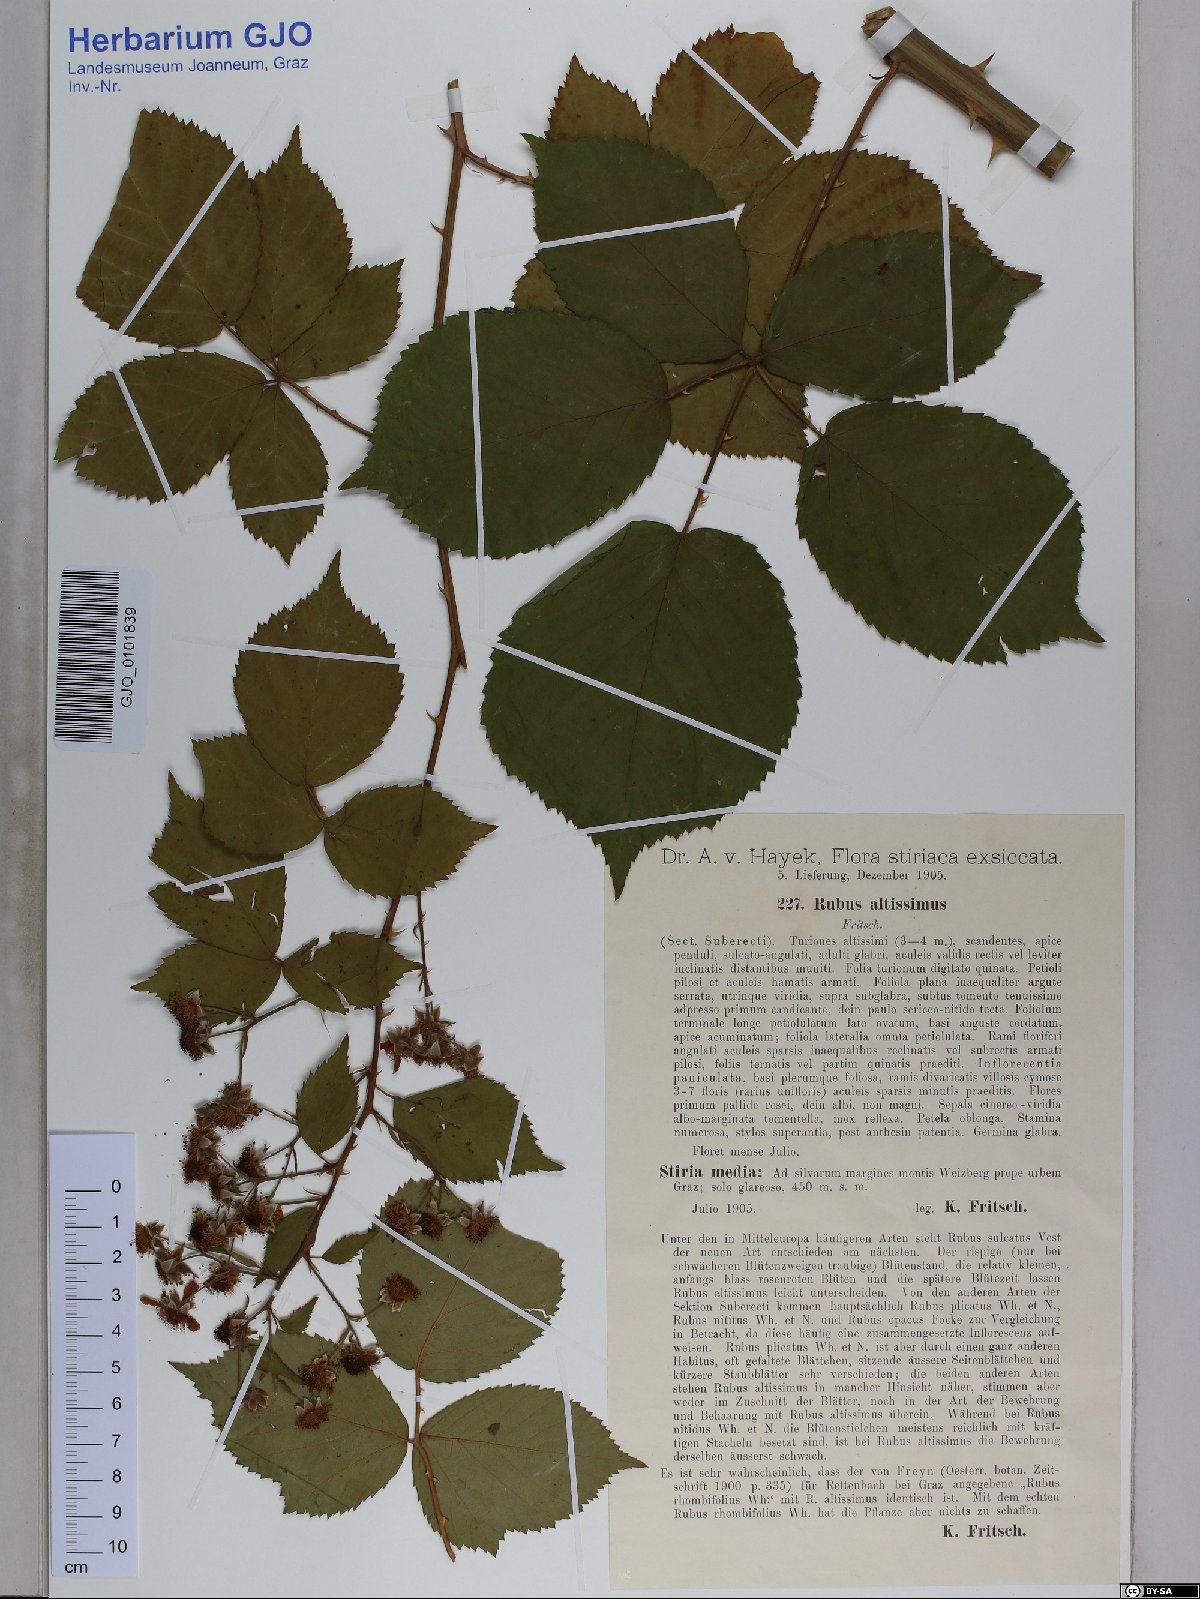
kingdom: Plantae
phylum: Tracheophyta
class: Magnoliopsida
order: Rosales
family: Rosaceae
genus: Rubus
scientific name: Rubus sulcatus
